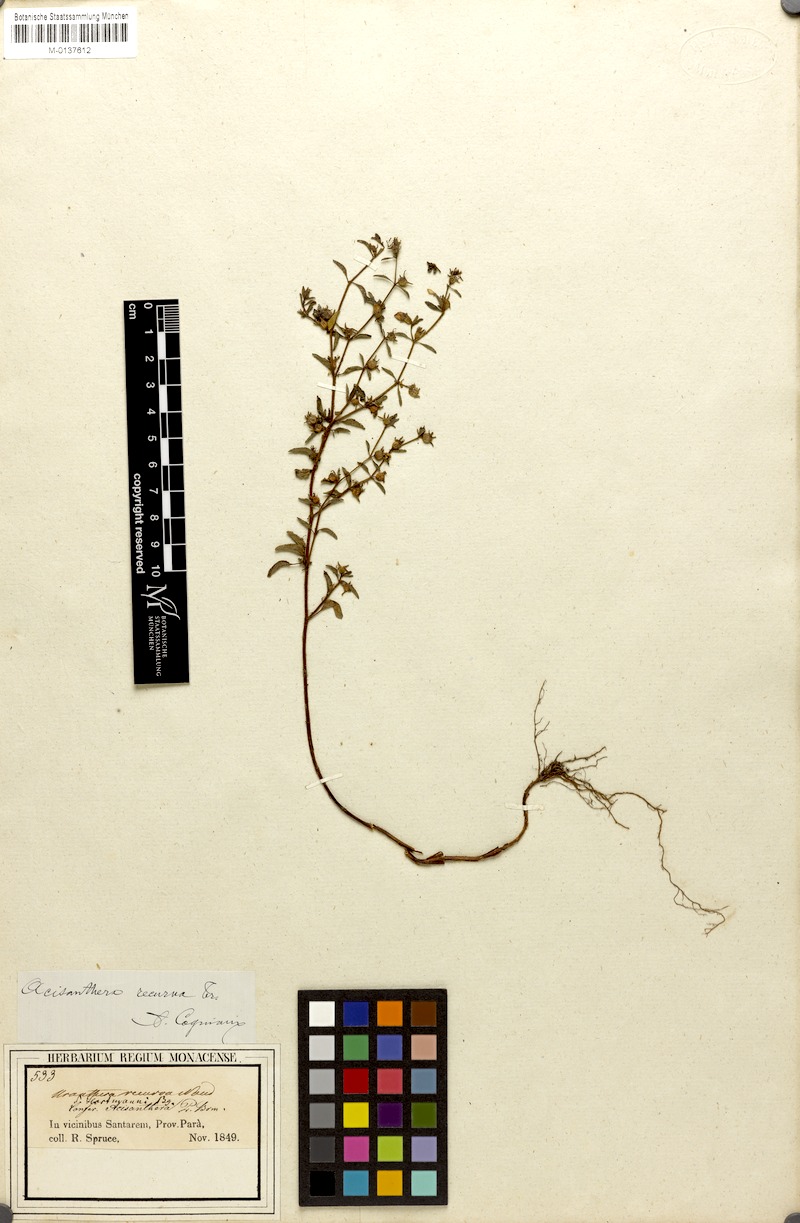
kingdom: Plantae
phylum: Tracheophyta
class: Magnoliopsida
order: Myrtales
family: Melastomataceae
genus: Acisanthera
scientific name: Acisanthera uniflora
